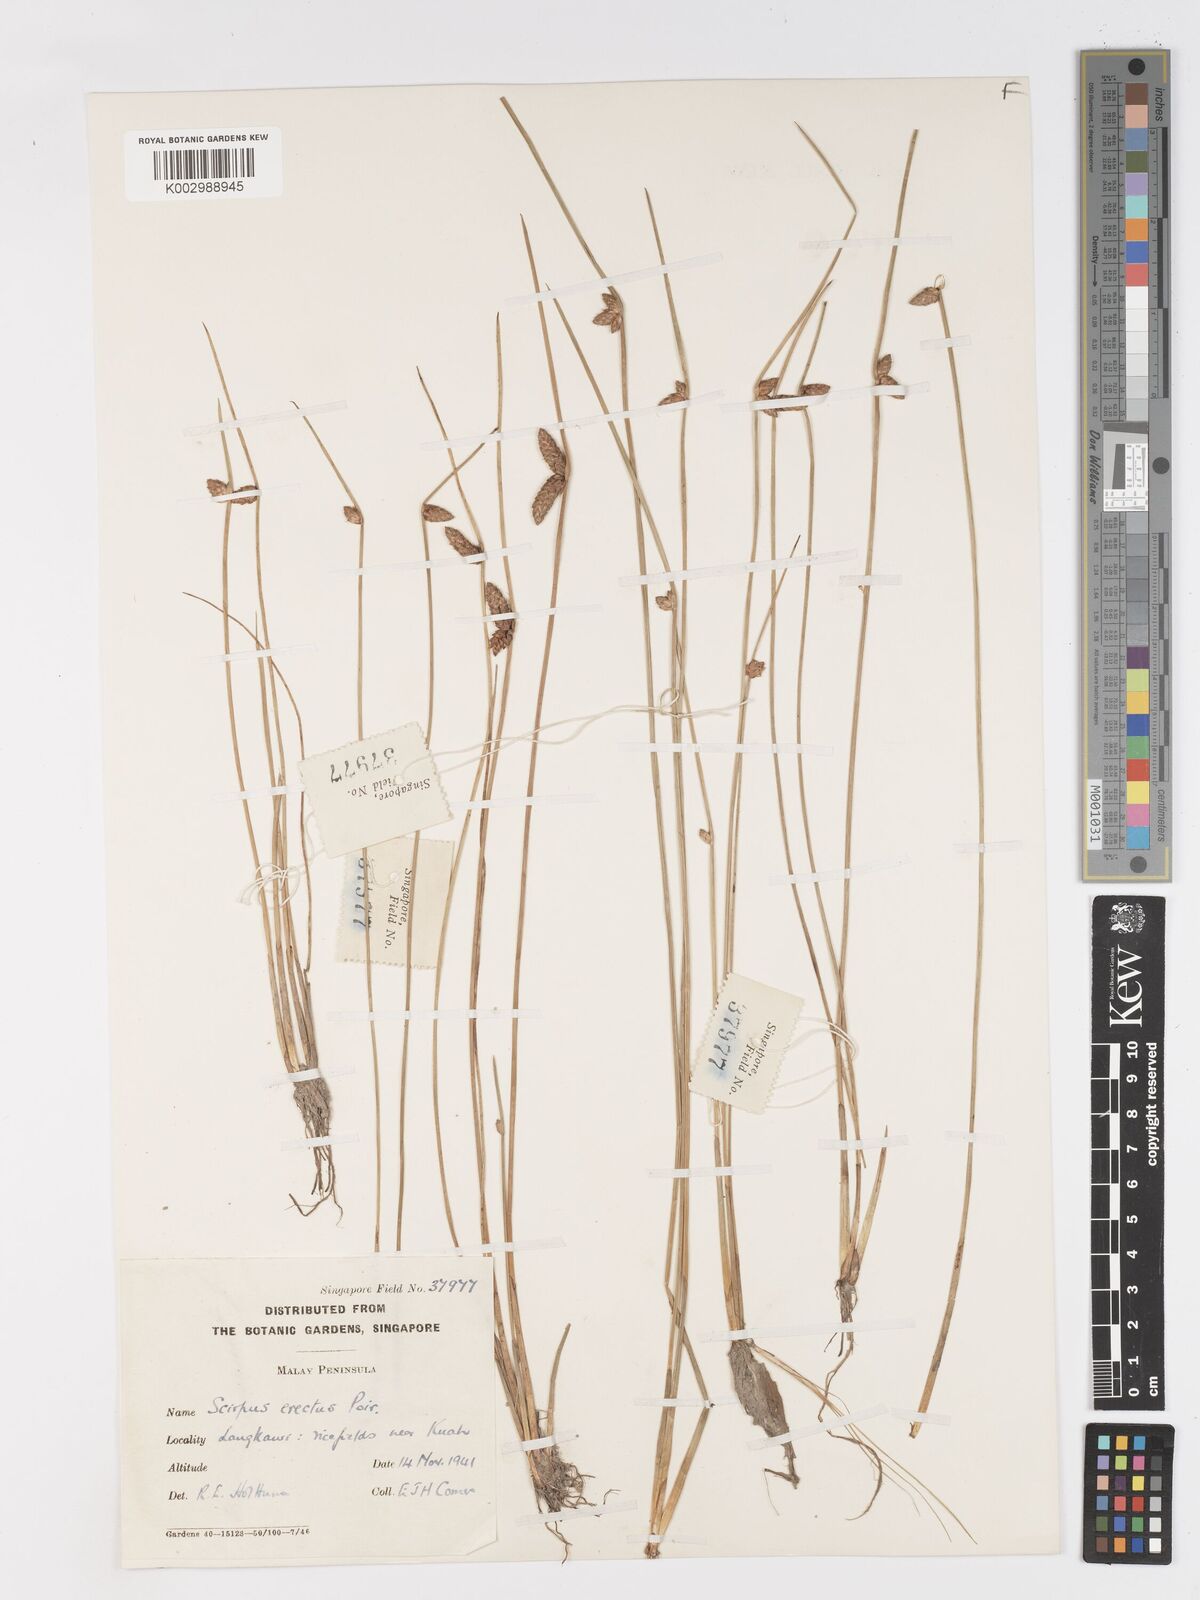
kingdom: Plantae
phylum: Tracheophyta
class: Liliopsida
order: Poales
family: Cyperaceae
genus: Schoenoplectiella
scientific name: Schoenoplectiella juncoides
